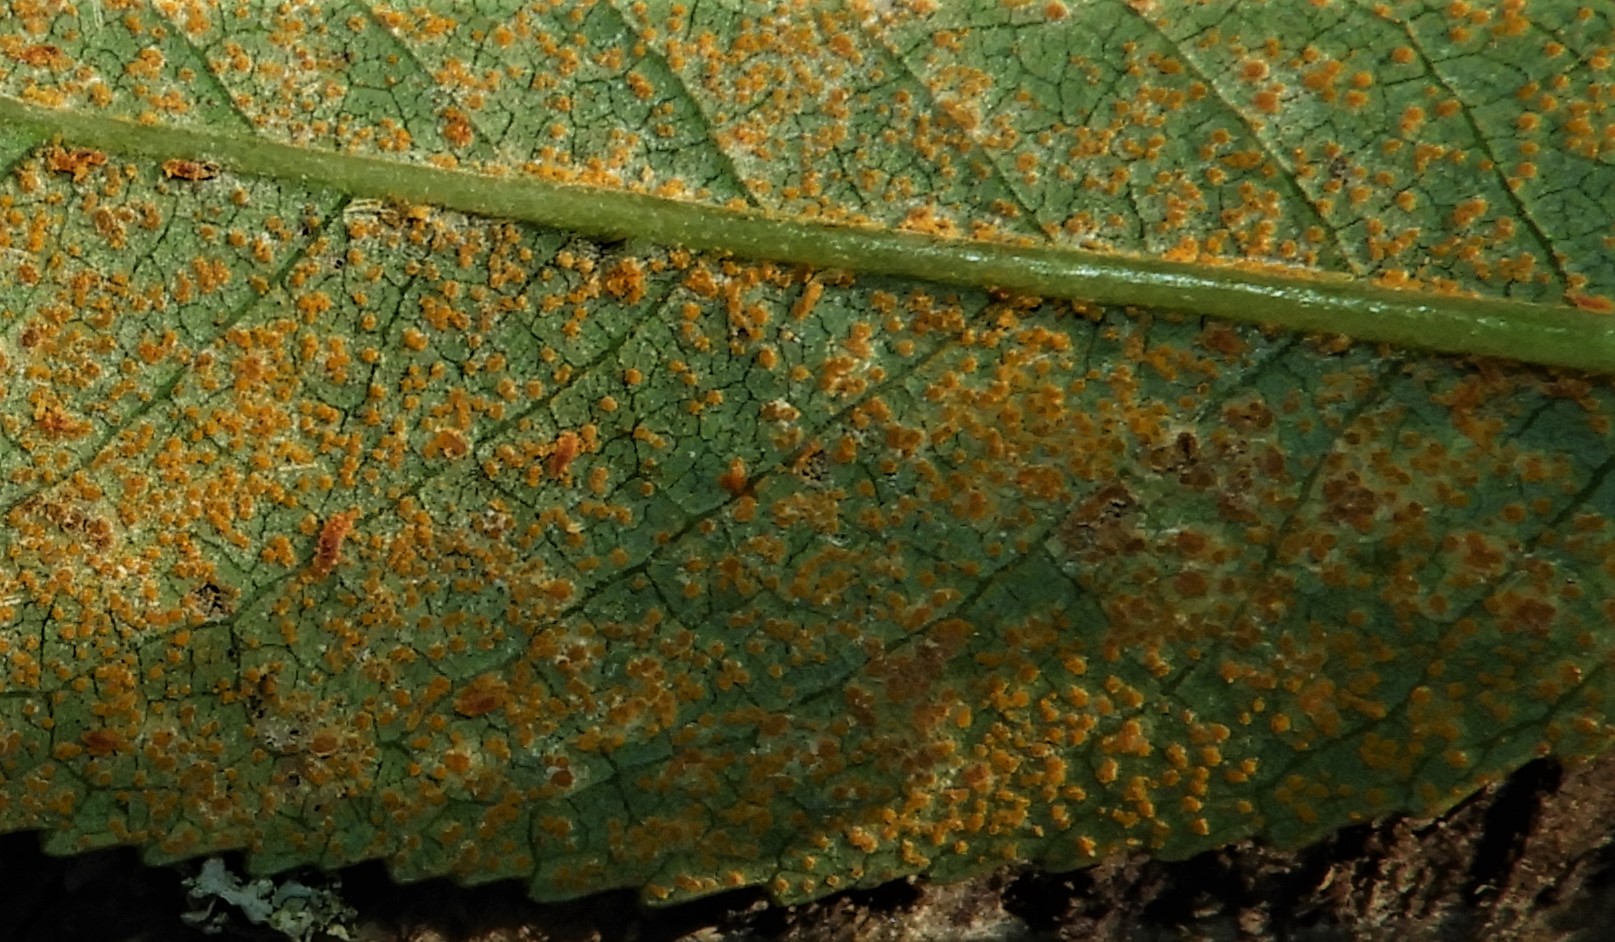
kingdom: Fungi
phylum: Basidiomycota
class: Pucciniomycetes
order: Pucciniales
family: Melampsoraceae
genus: Melampsora
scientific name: Melampsora
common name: skorperust
